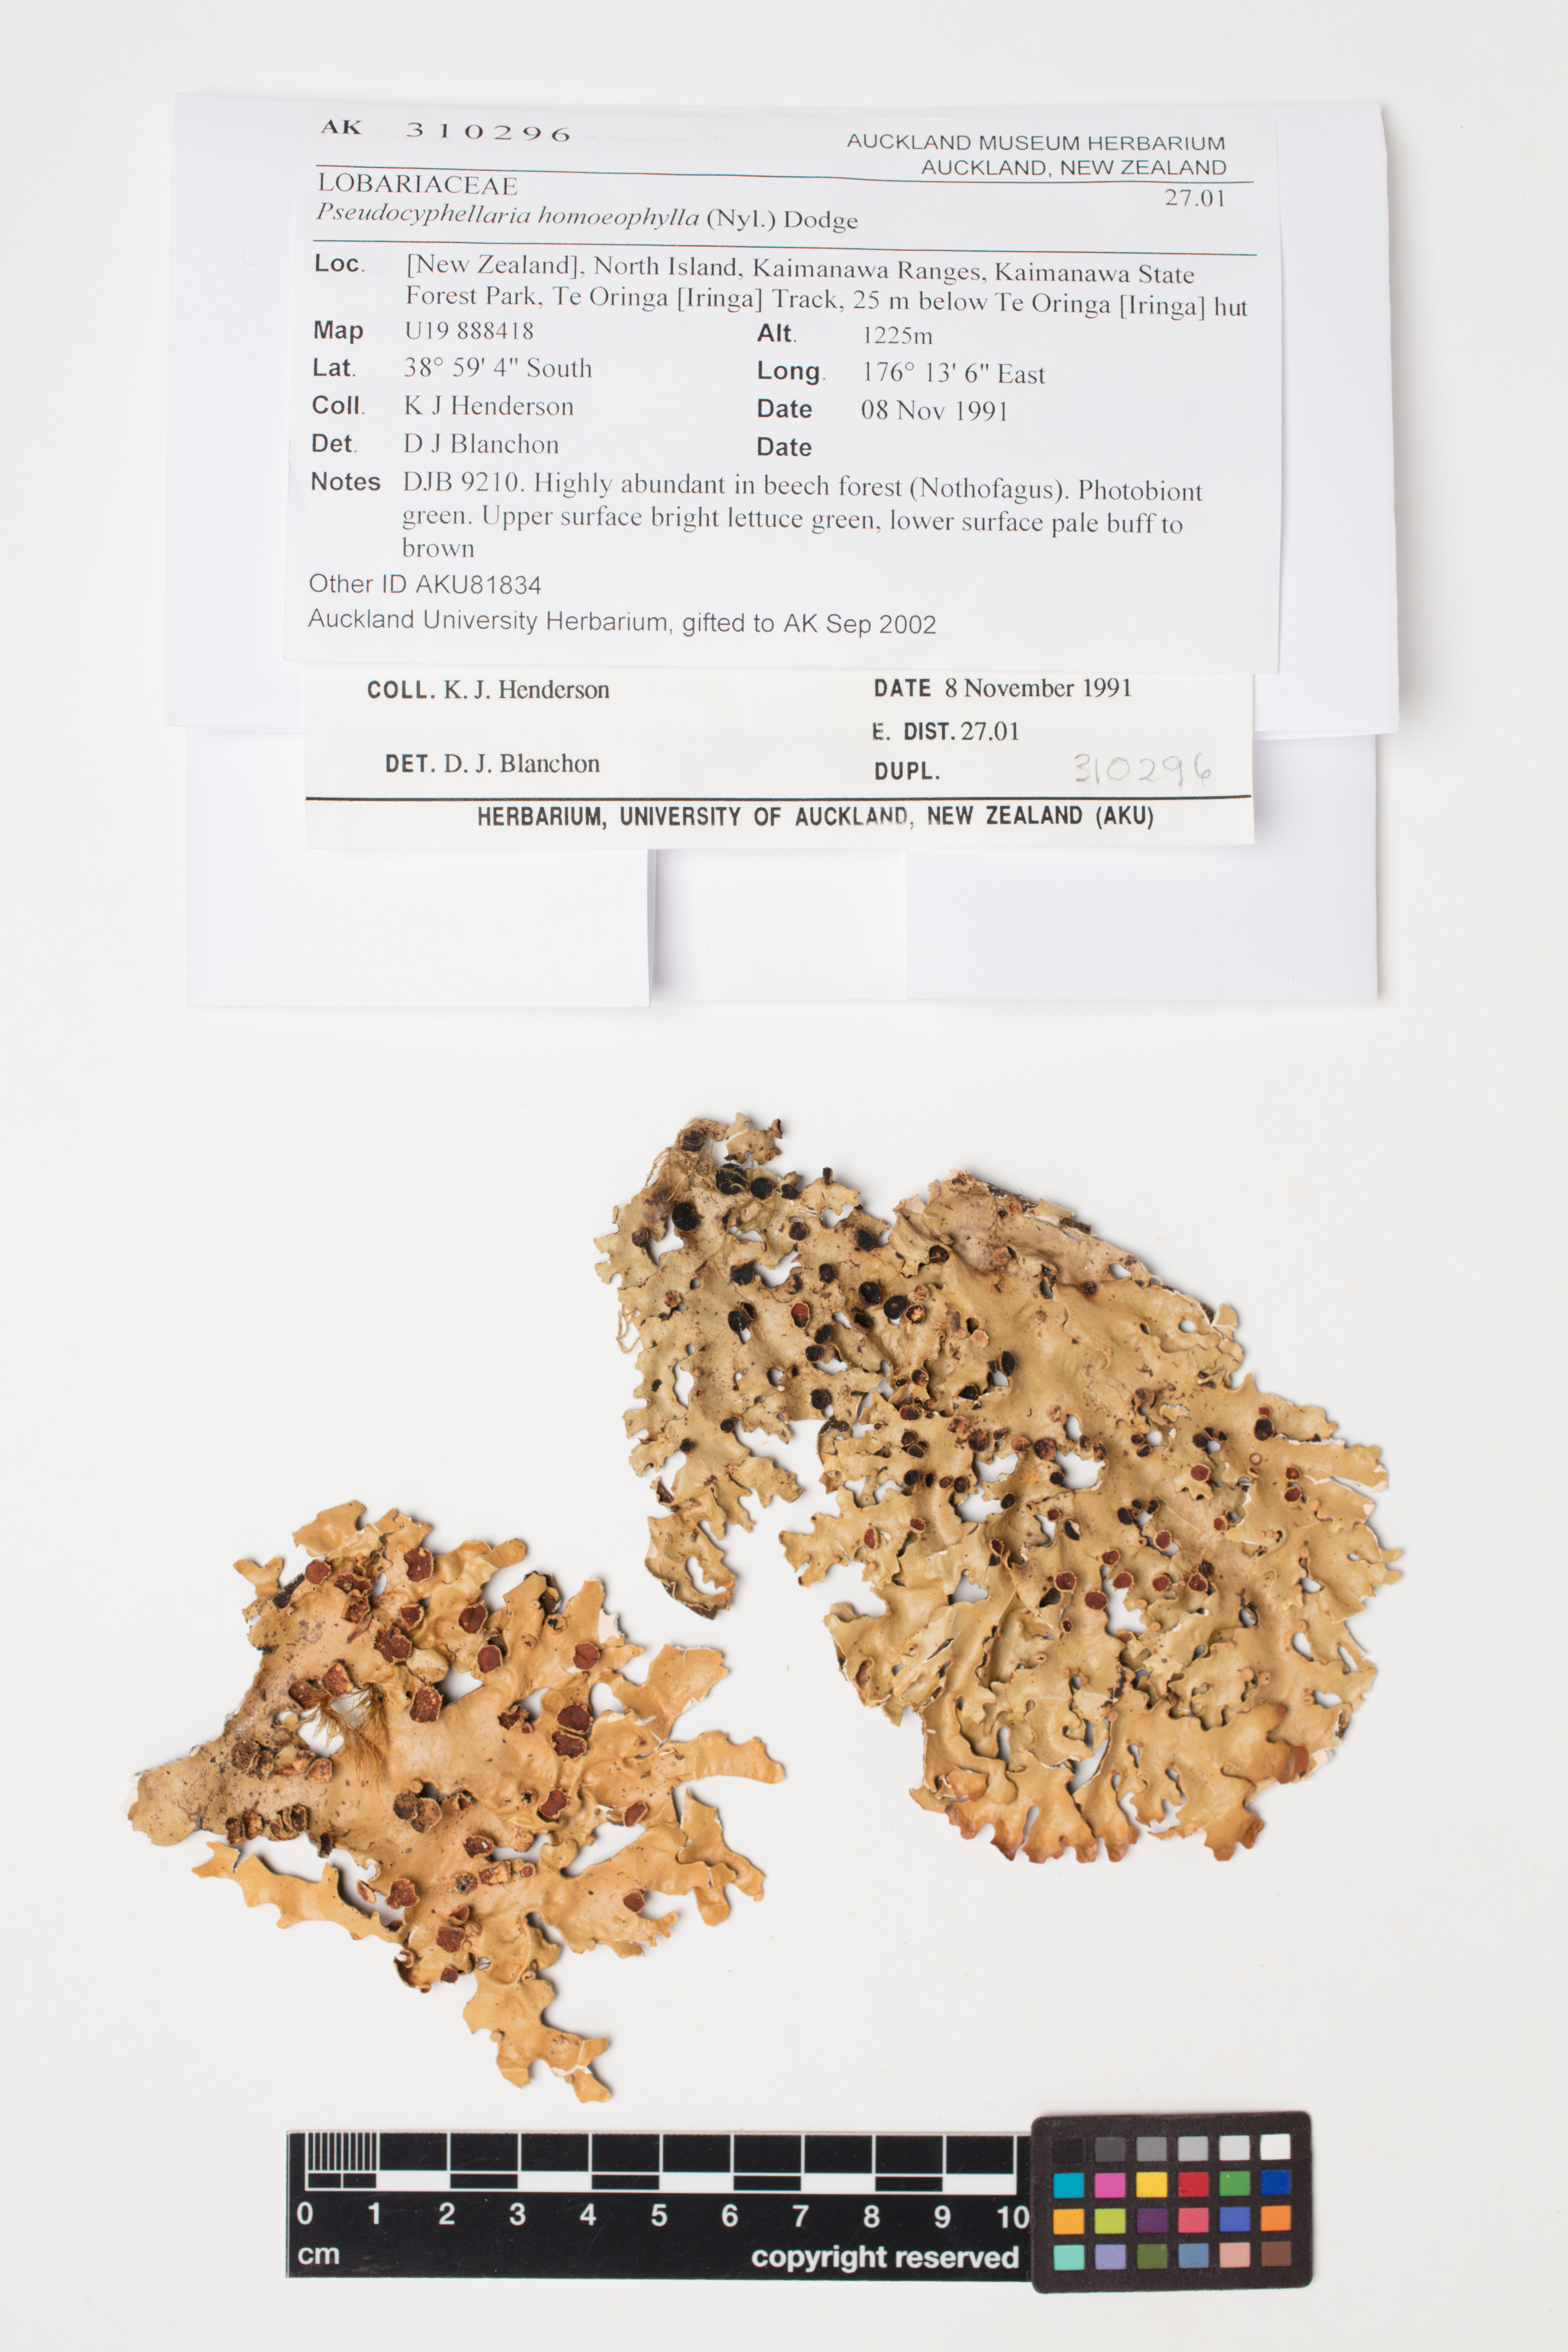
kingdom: Fungi
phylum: Ascomycota
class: Lecanoromycetes
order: Peltigerales
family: Lobariaceae
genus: Pseudocyphellaria
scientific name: Pseudocyphellaria homeophylla
